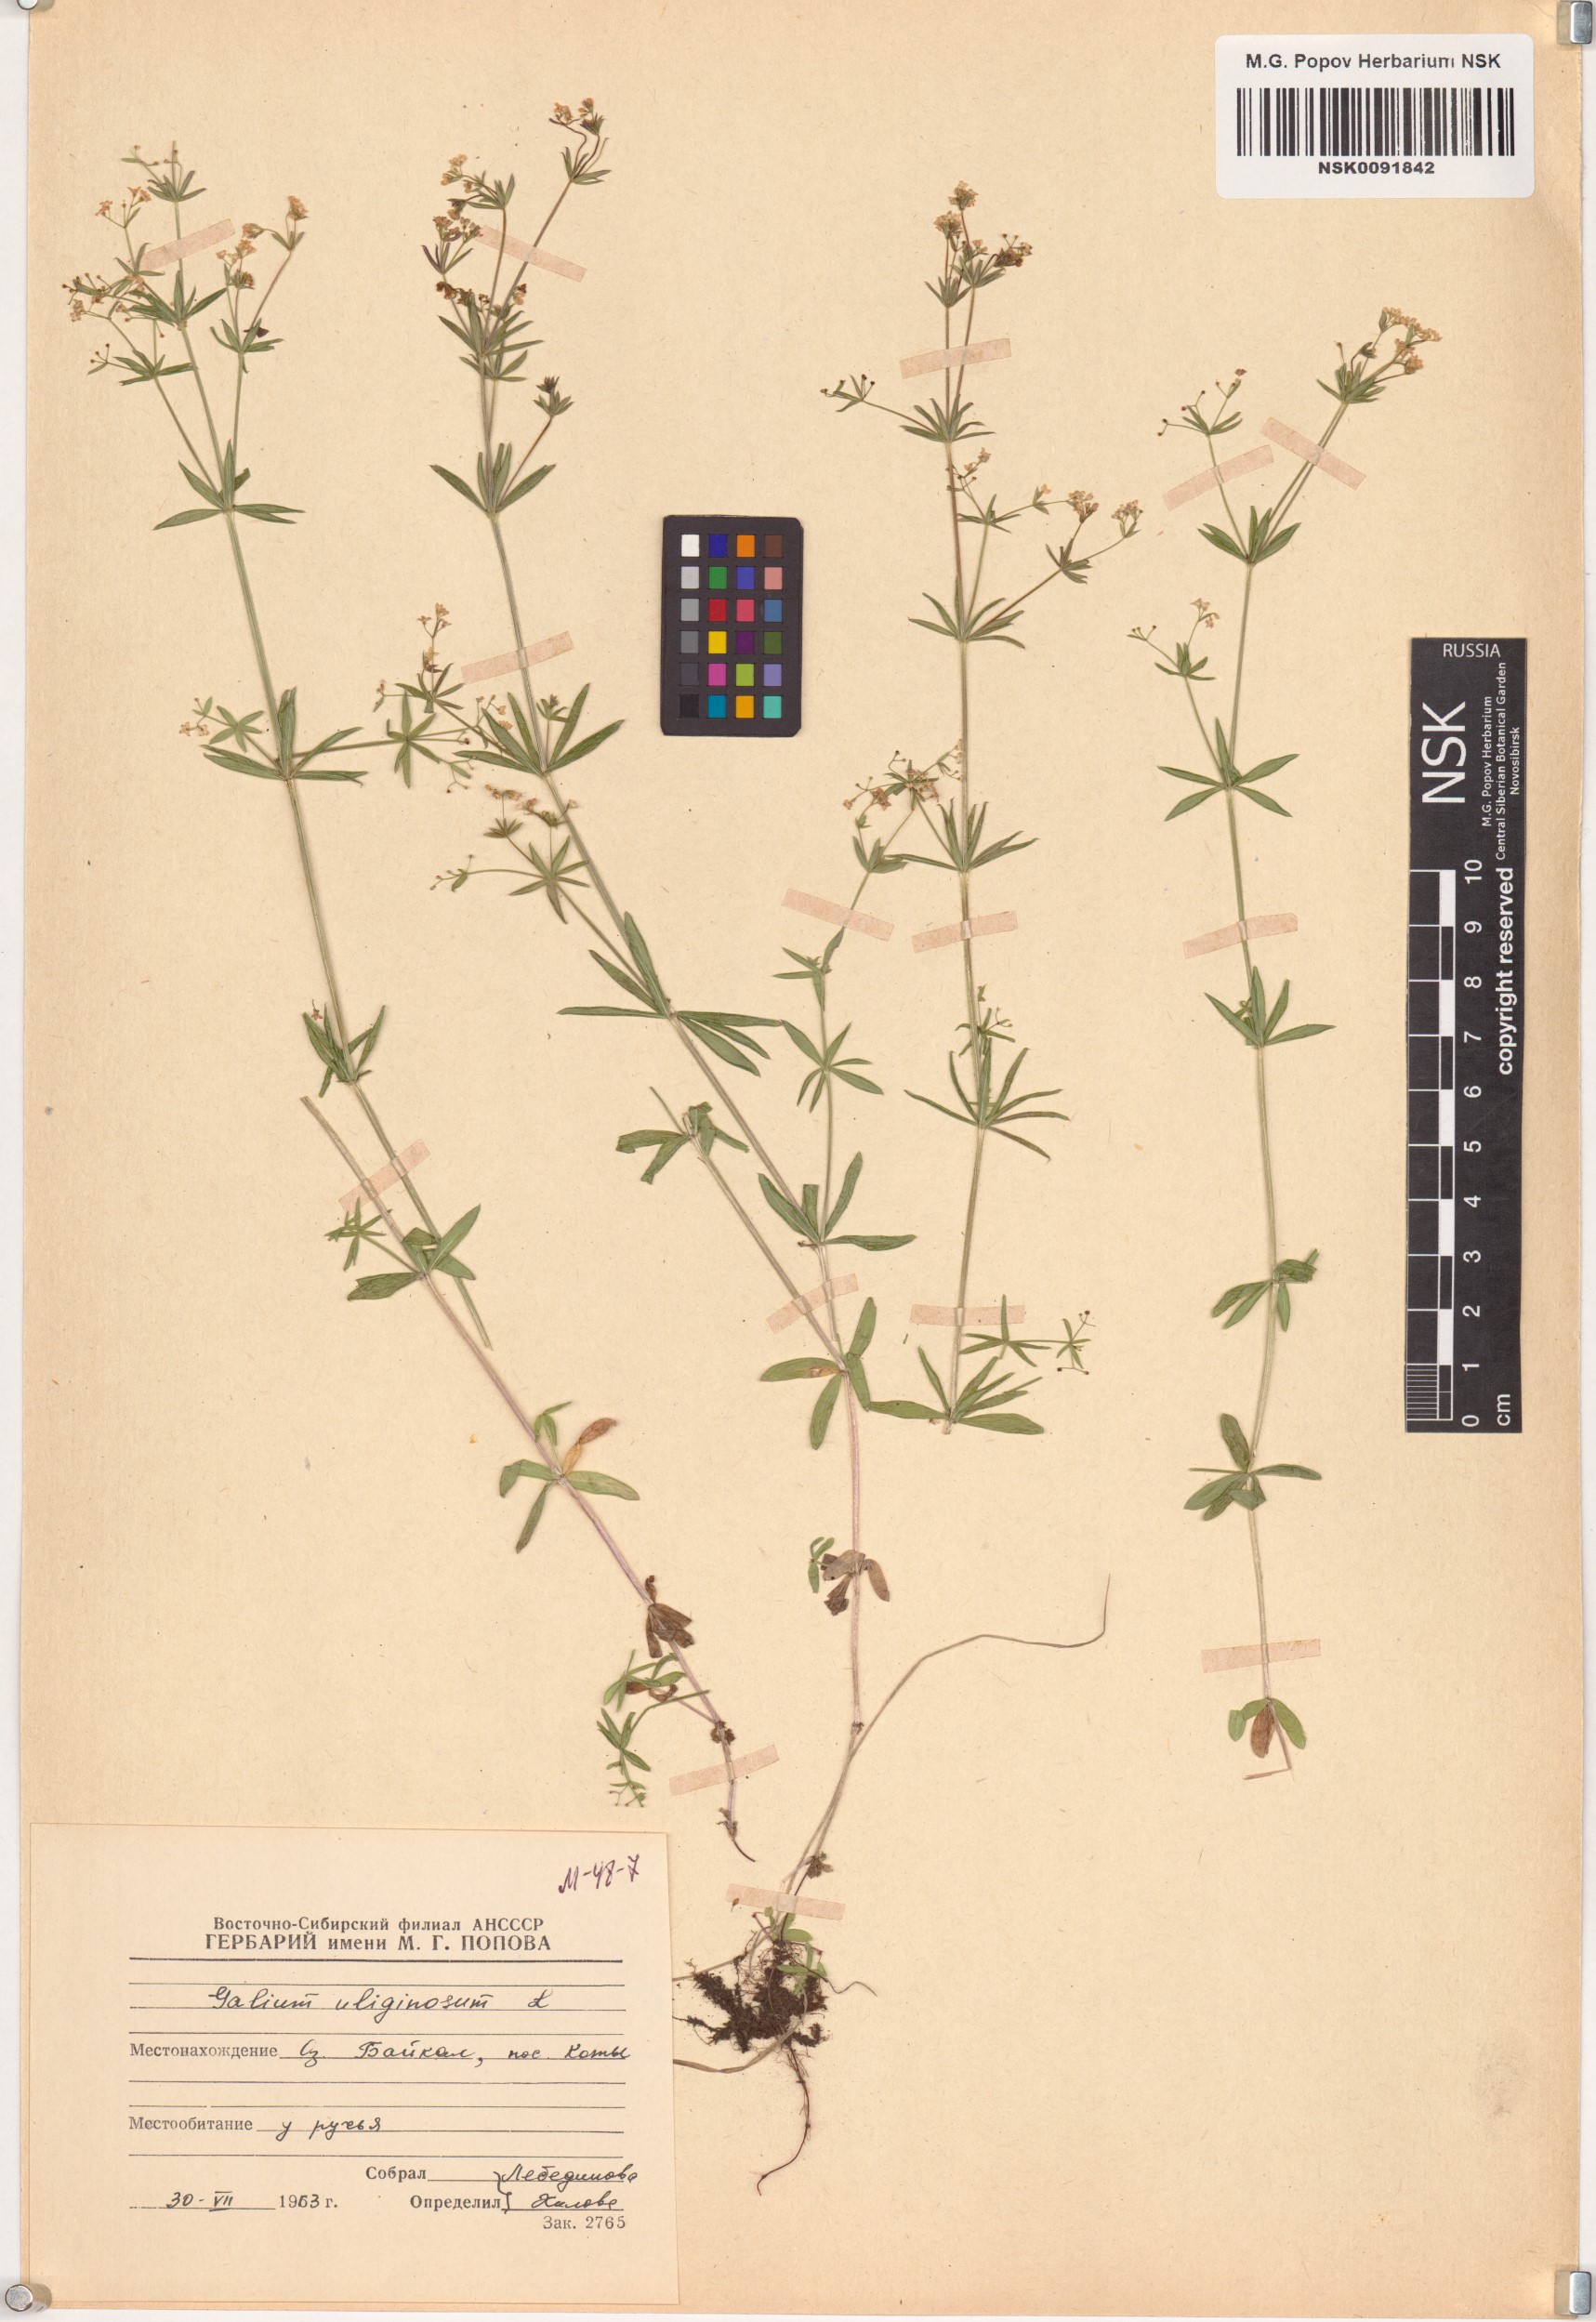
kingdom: Plantae
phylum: Tracheophyta
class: Magnoliopsida
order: Gentianales
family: Rubiaceae
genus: Galium
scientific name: Galium uliginosum
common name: Fen bedstraw
